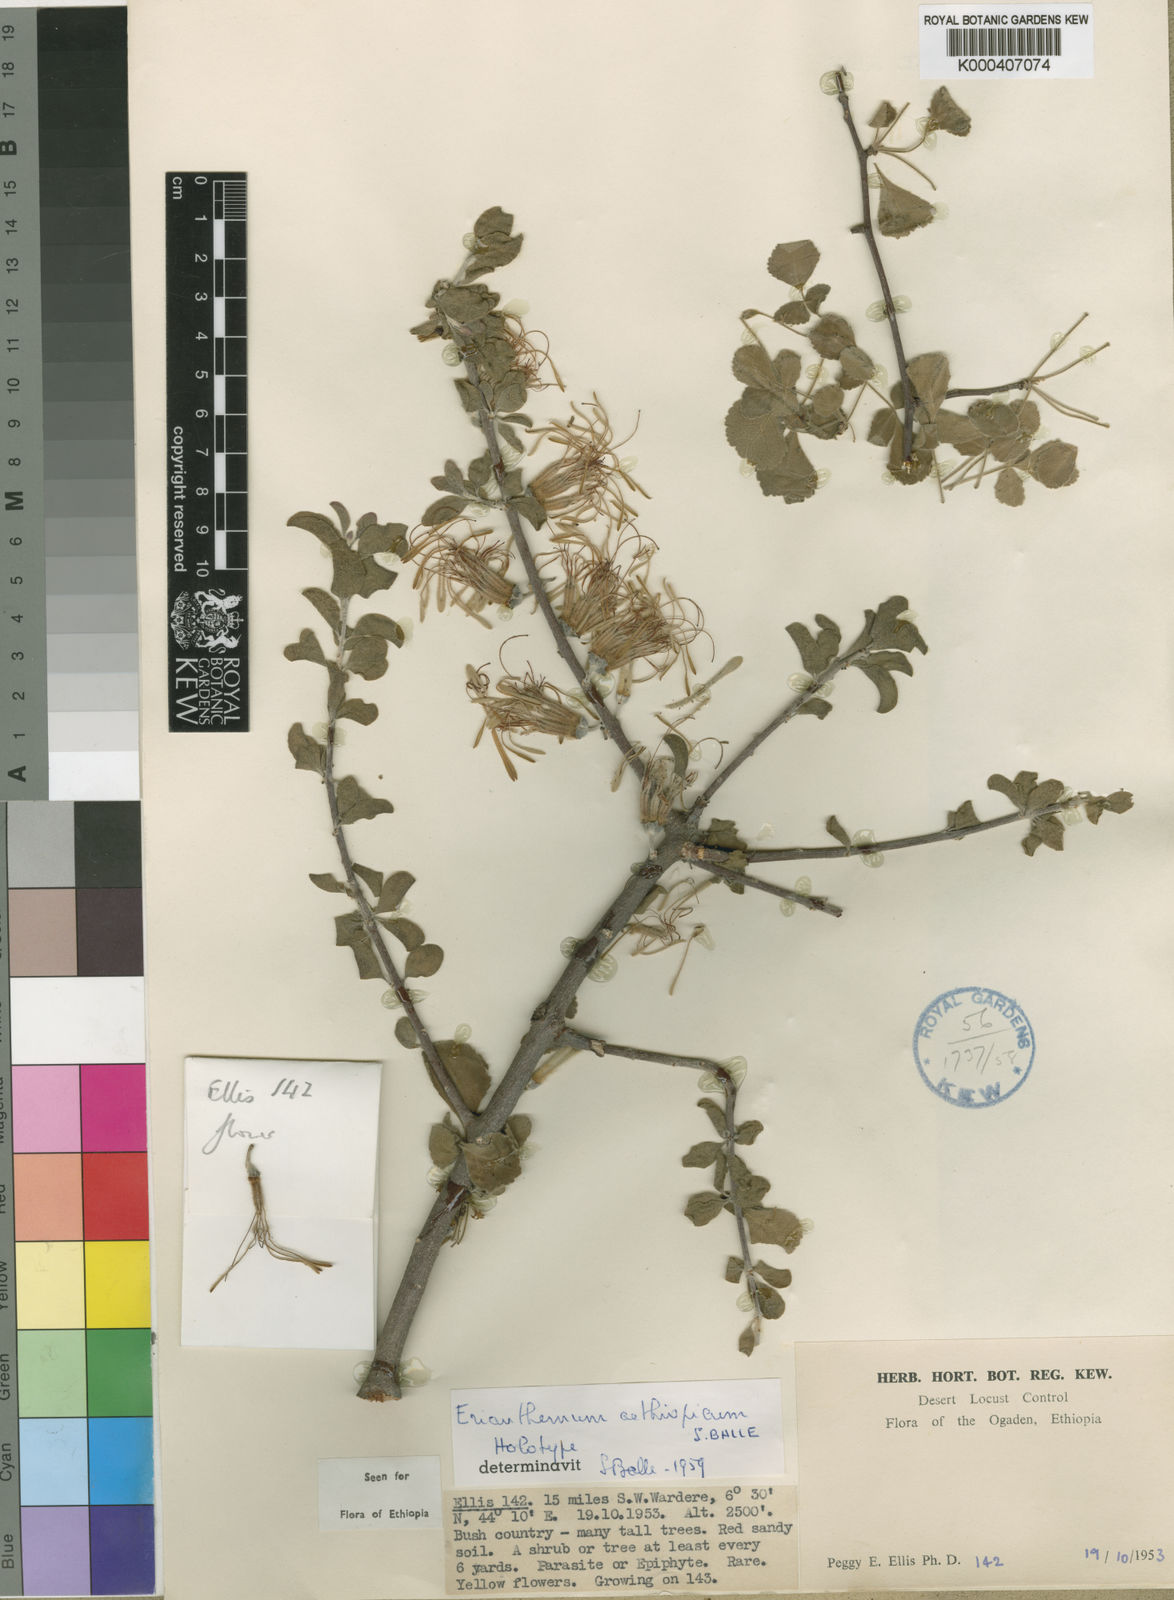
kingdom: Plantae
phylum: Tracheophyta
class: Magnoliopsida
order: Santalales
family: Loranthaceae
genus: Erianthemum
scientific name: Erianthemum aethiopicum
